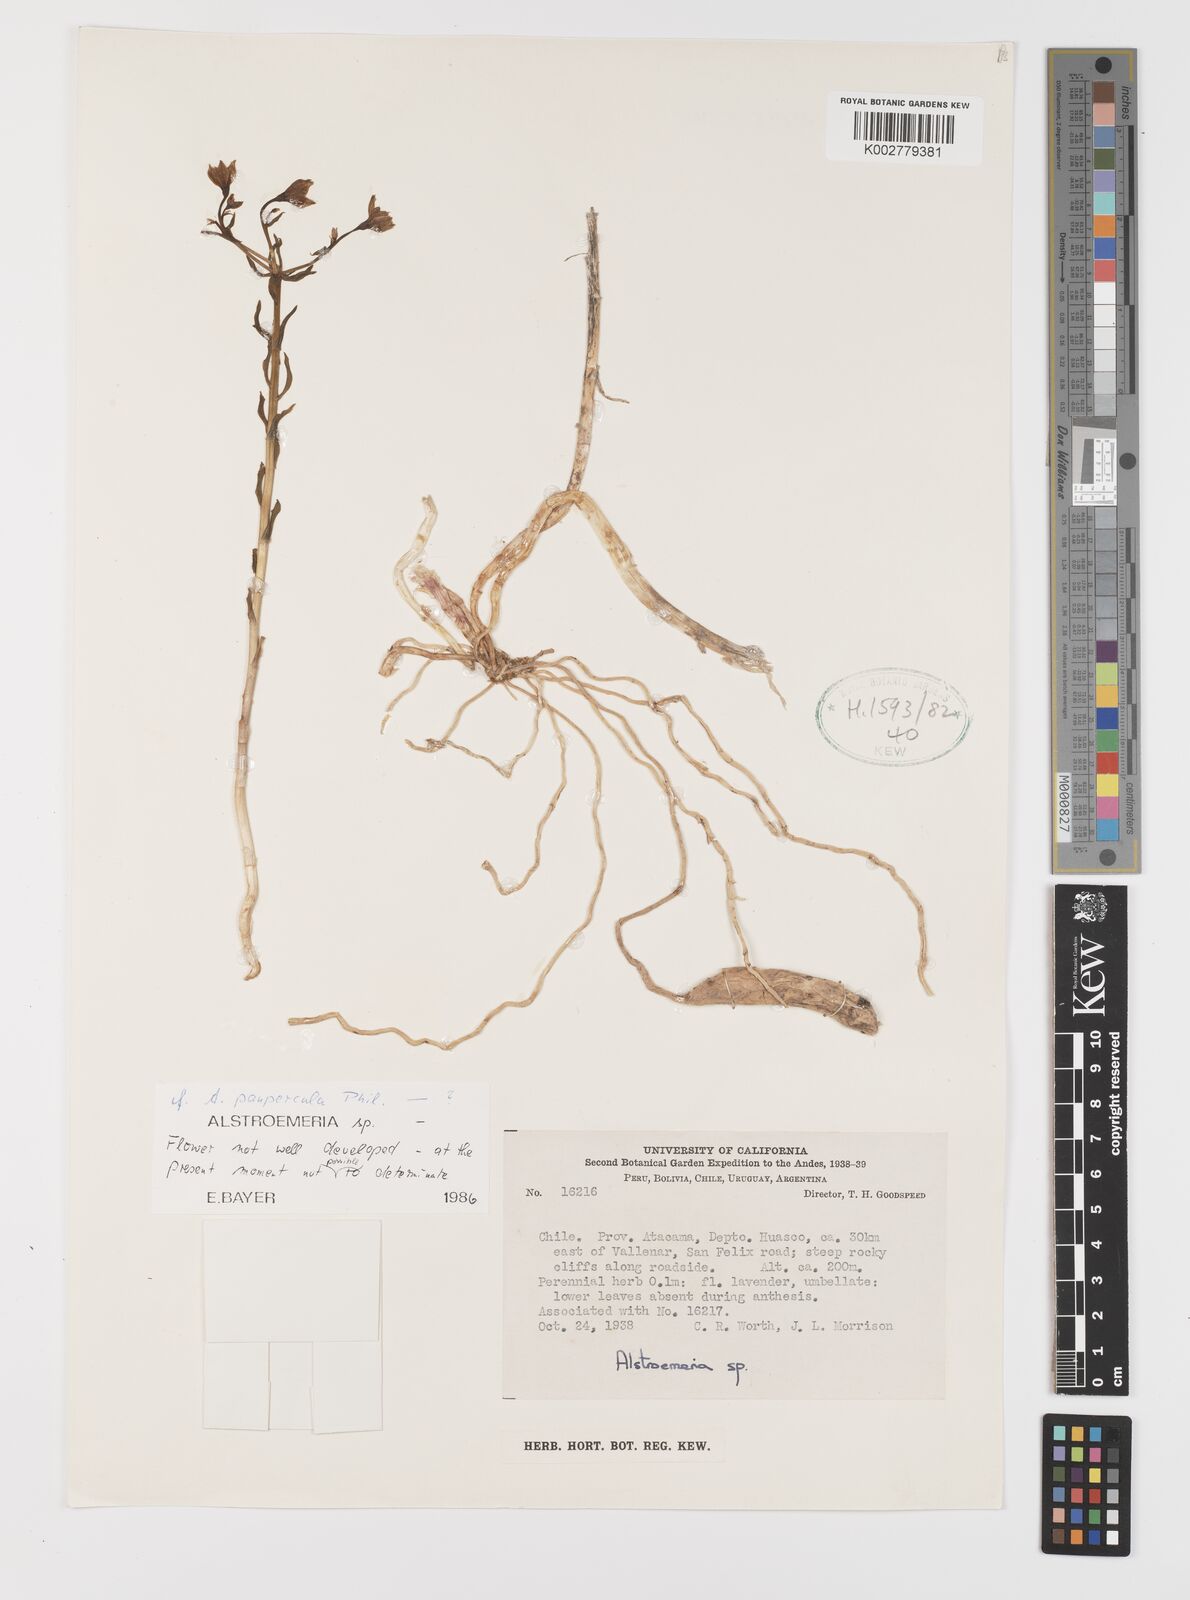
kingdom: Plantae
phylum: Tracheophyta
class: Liliopsida
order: Liliales
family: Alstroemeriaceae
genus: Alstroemeria
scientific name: Alstroemeria paupercula
